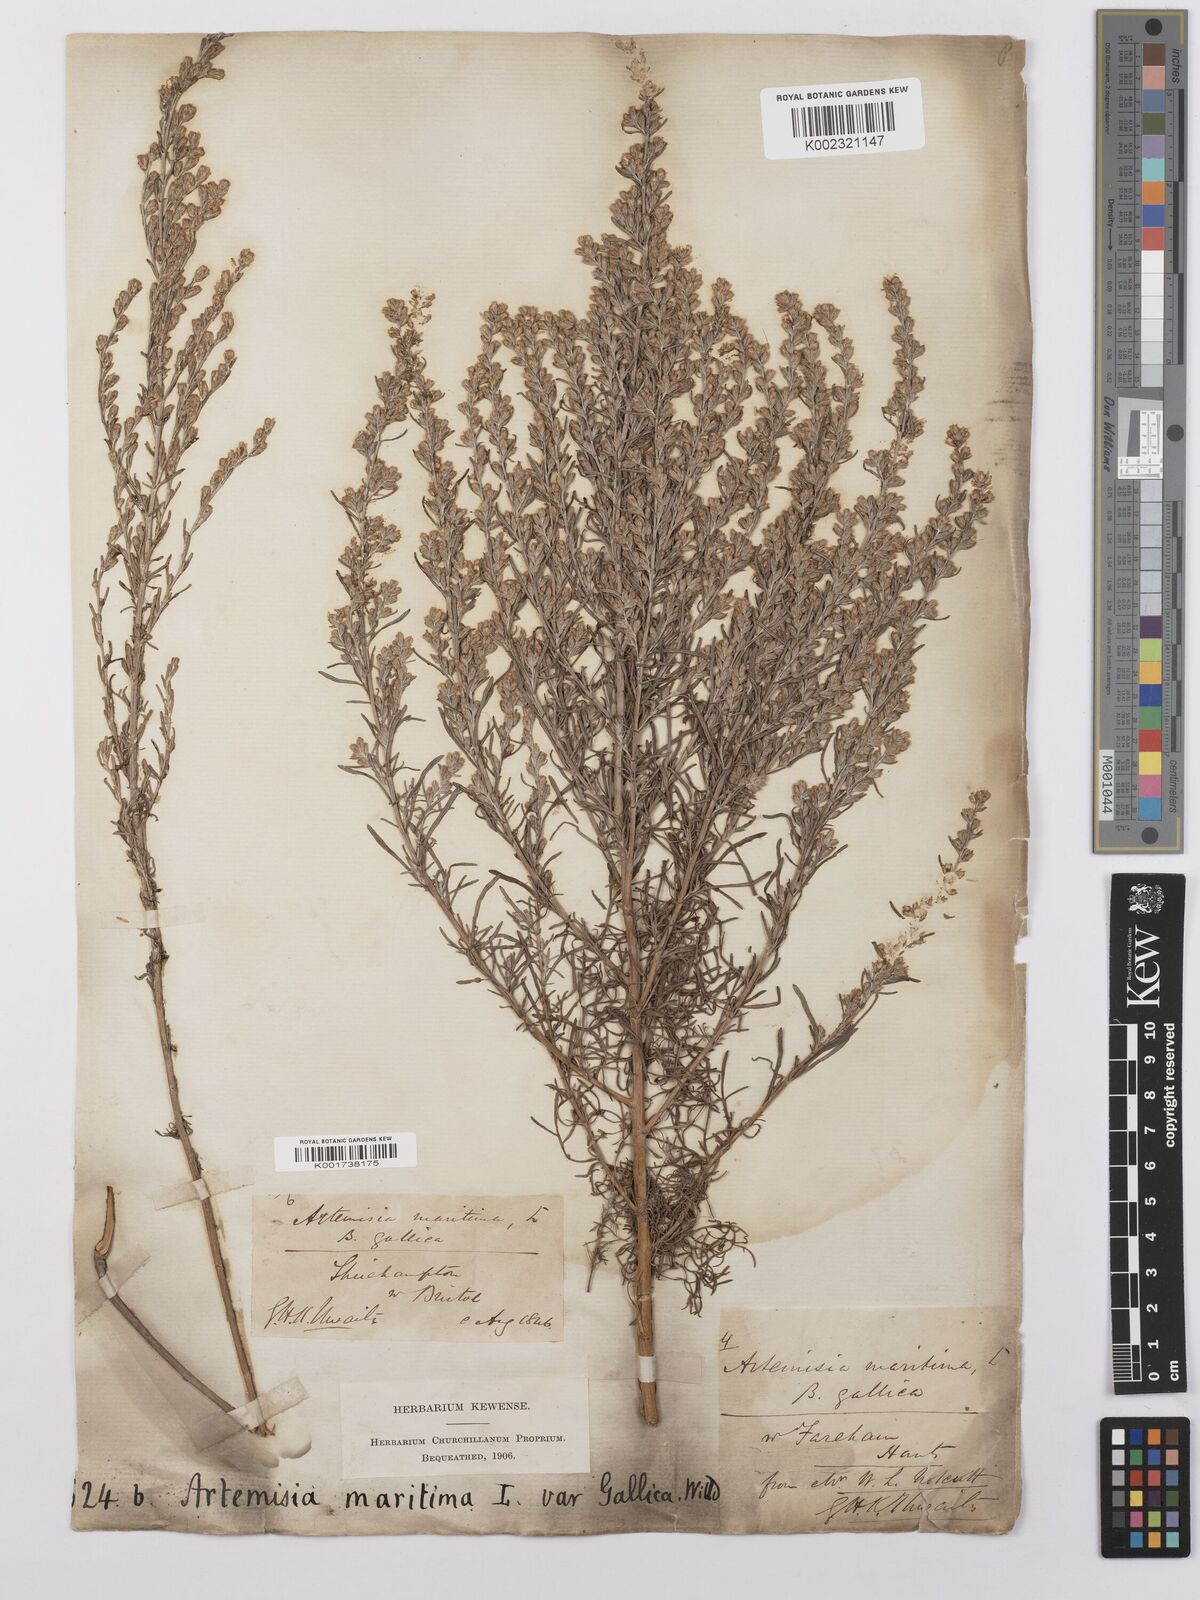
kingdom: Plantae
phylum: Tracheophyta
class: Magnoliopsida
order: Asterales
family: Asteraceae
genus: Artemisia
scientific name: Artemisia maritima
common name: Wormseed
